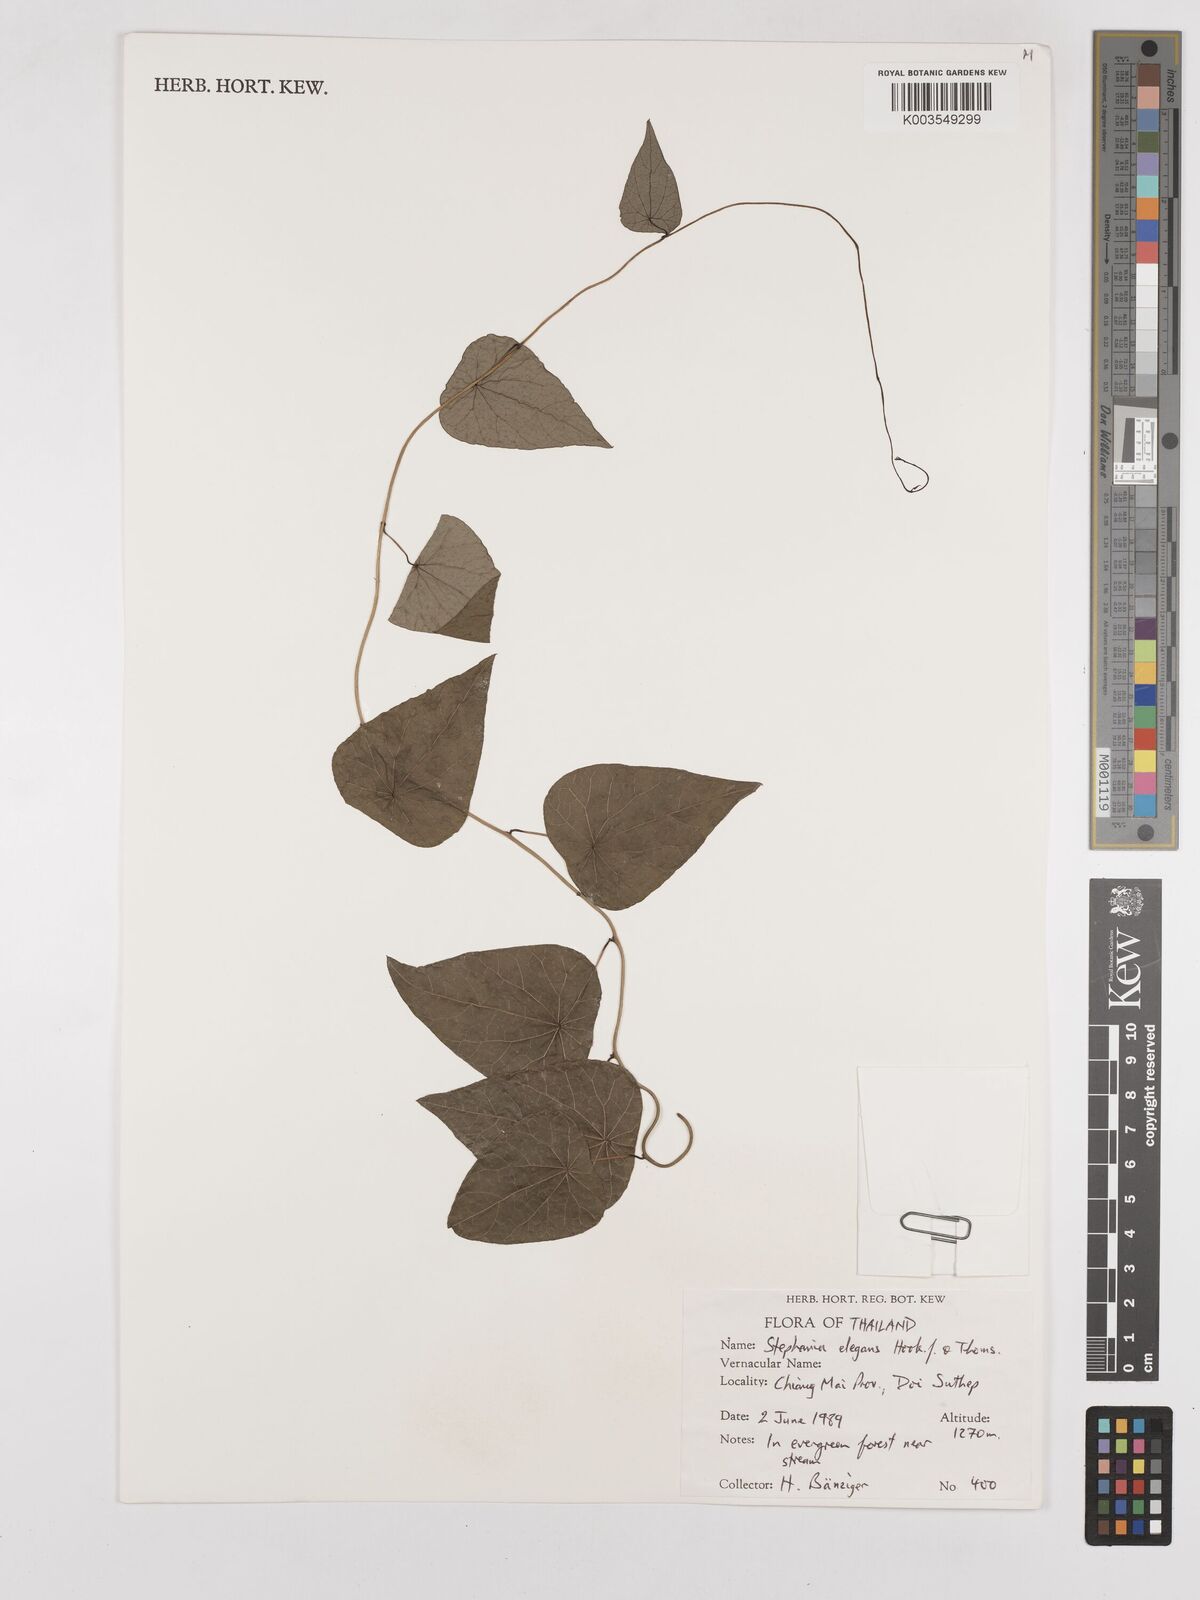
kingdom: Plantae
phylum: Tracheophyta
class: Magnoliopsida
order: Ranunculales
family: Menispermaceae
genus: Stephania
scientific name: Stephania elegans
